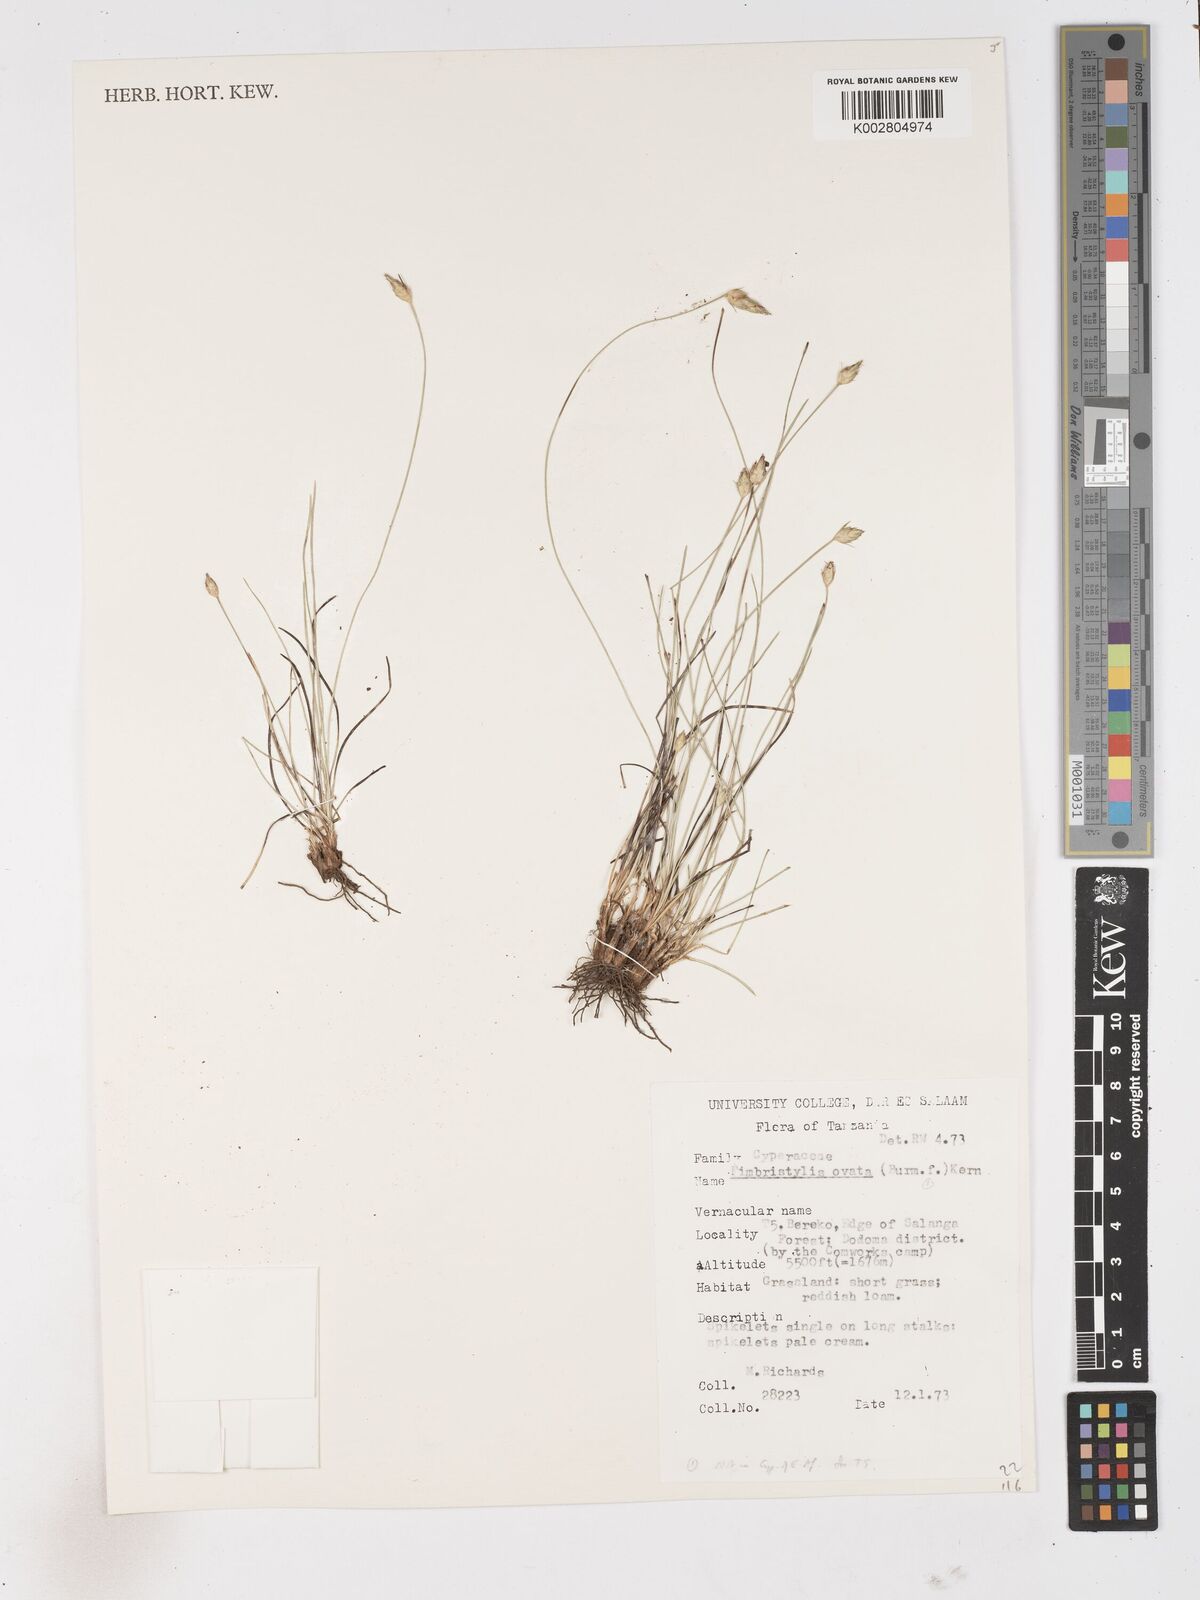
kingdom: Plantae
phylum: Tracheophyta
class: Liliopsida
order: Poales
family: Cyperaceae
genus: Abildgaardia
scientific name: Abildgaardia ovata
